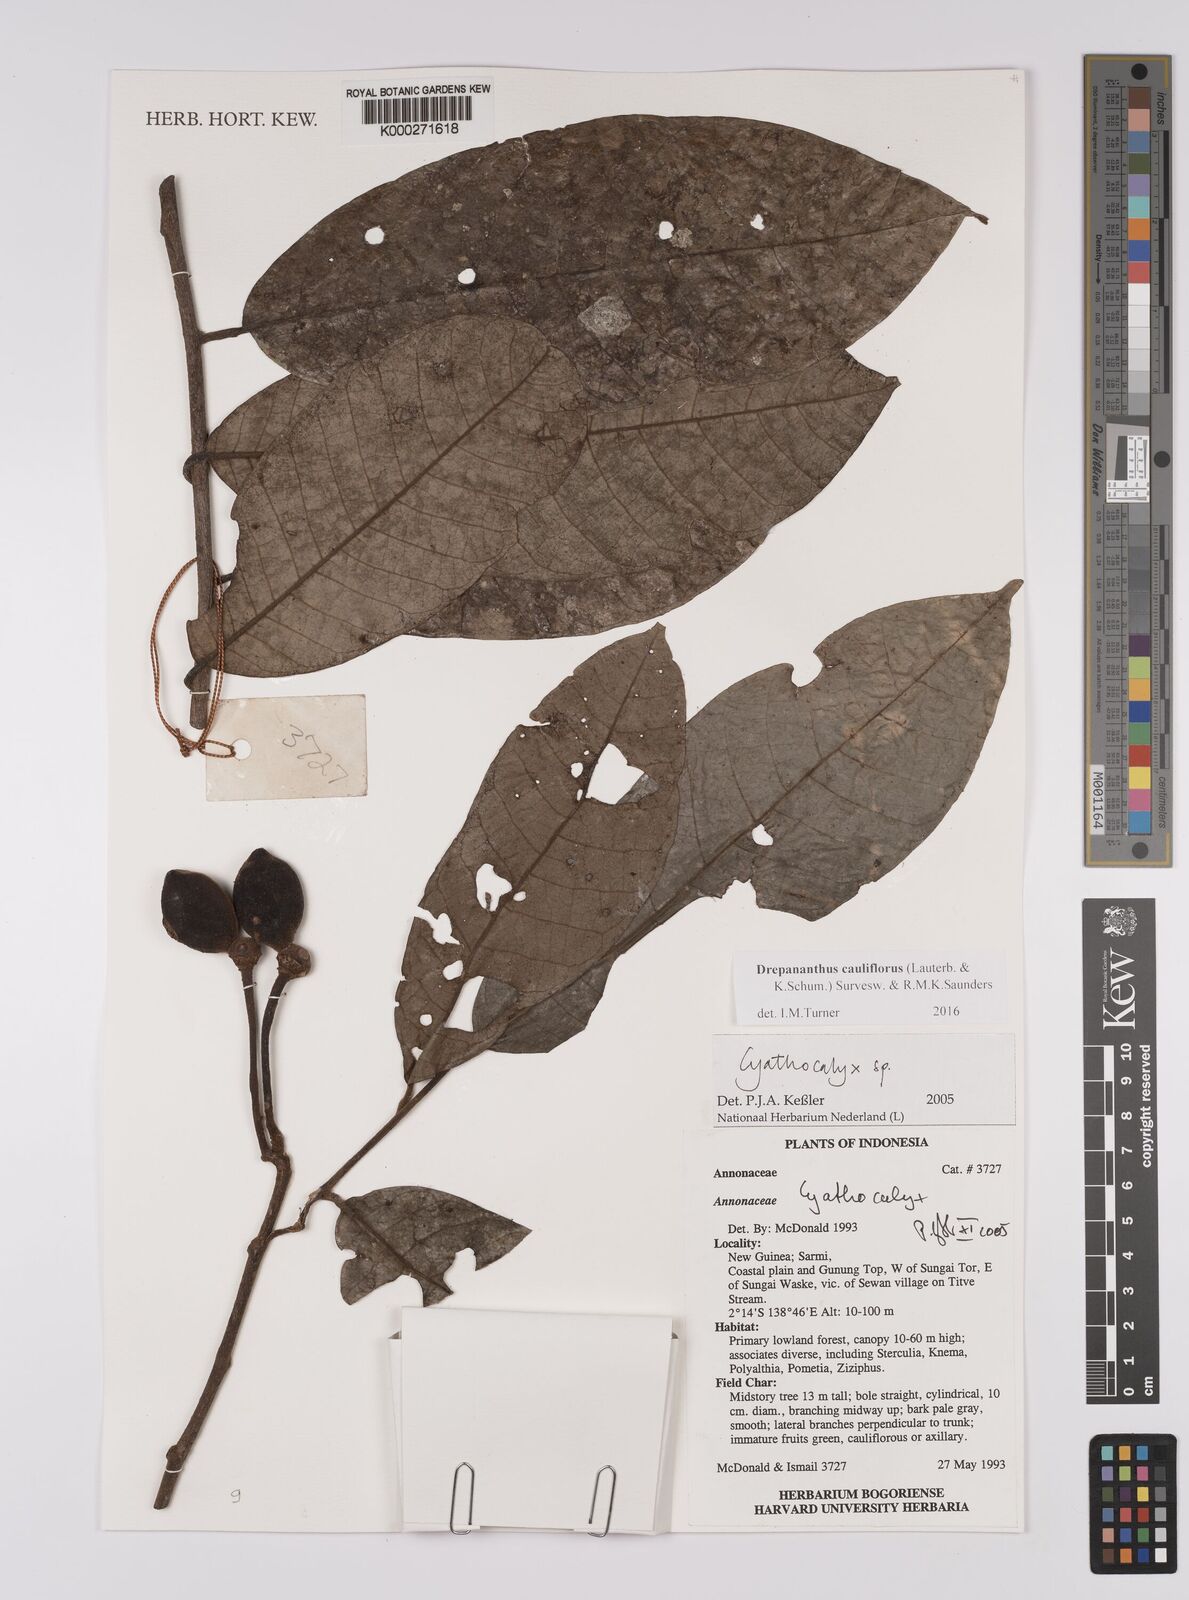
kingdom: Plantae
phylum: Tracheophyta
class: Magnoliopsida
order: Magnoliales
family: Annonaceae
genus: Cyathocalyx
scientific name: Cyathocalyx
